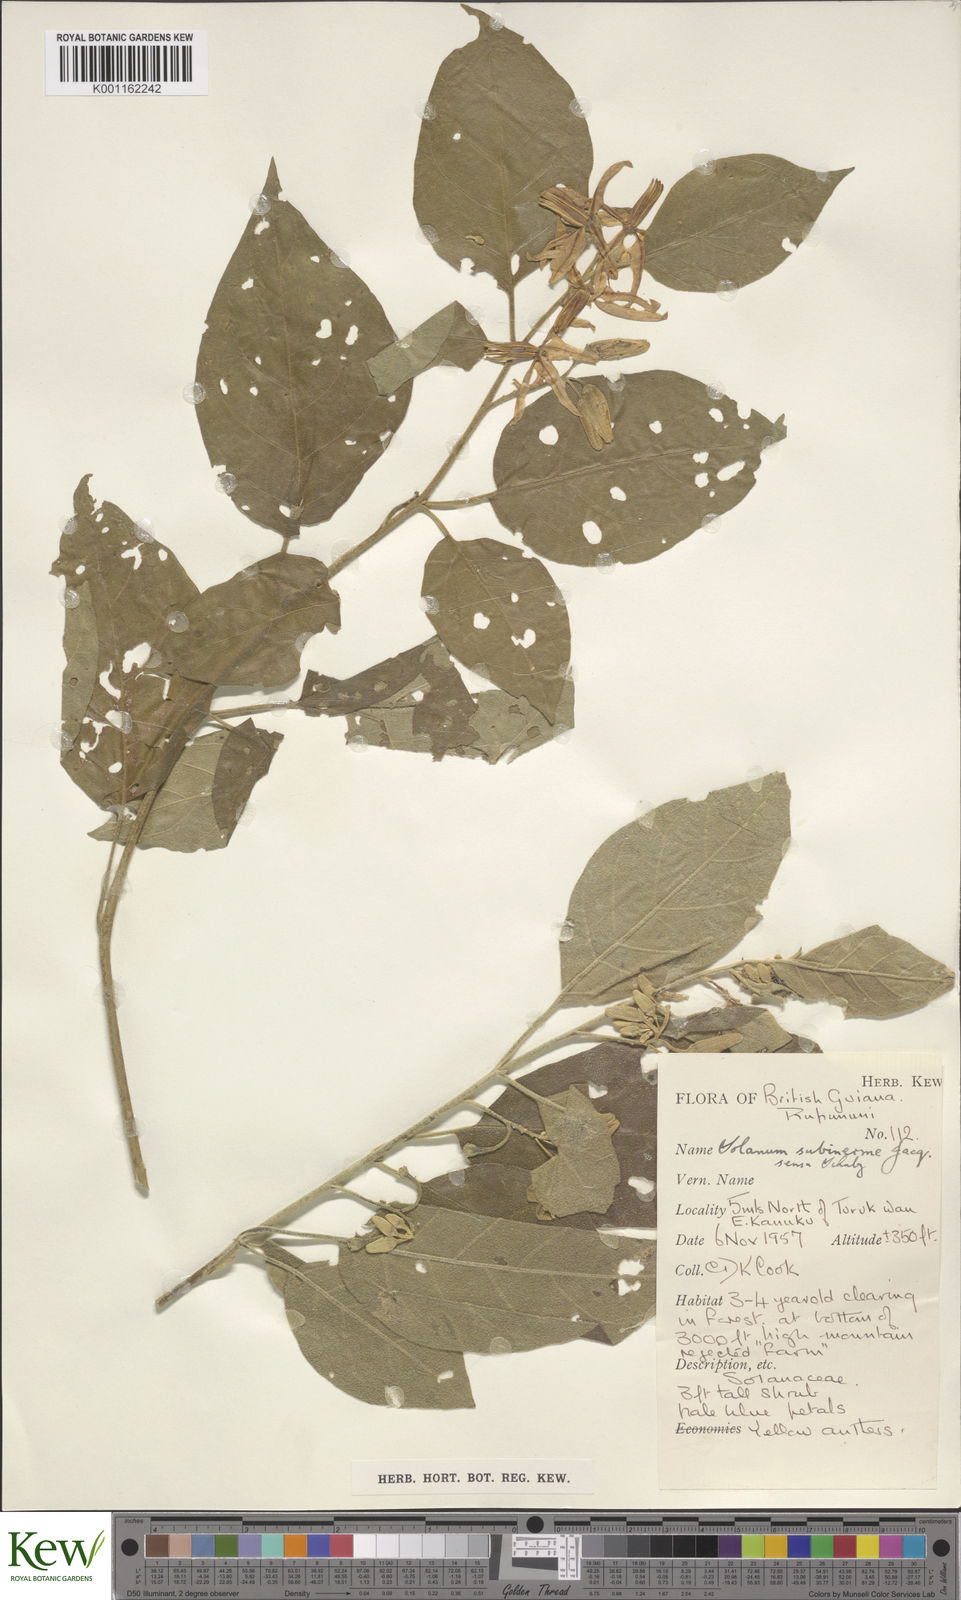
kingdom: Plantae
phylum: Tracheophyta
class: Magnoliopsida
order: Solanales
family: Solanaceae
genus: Solanum
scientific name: Solanum subinerme
